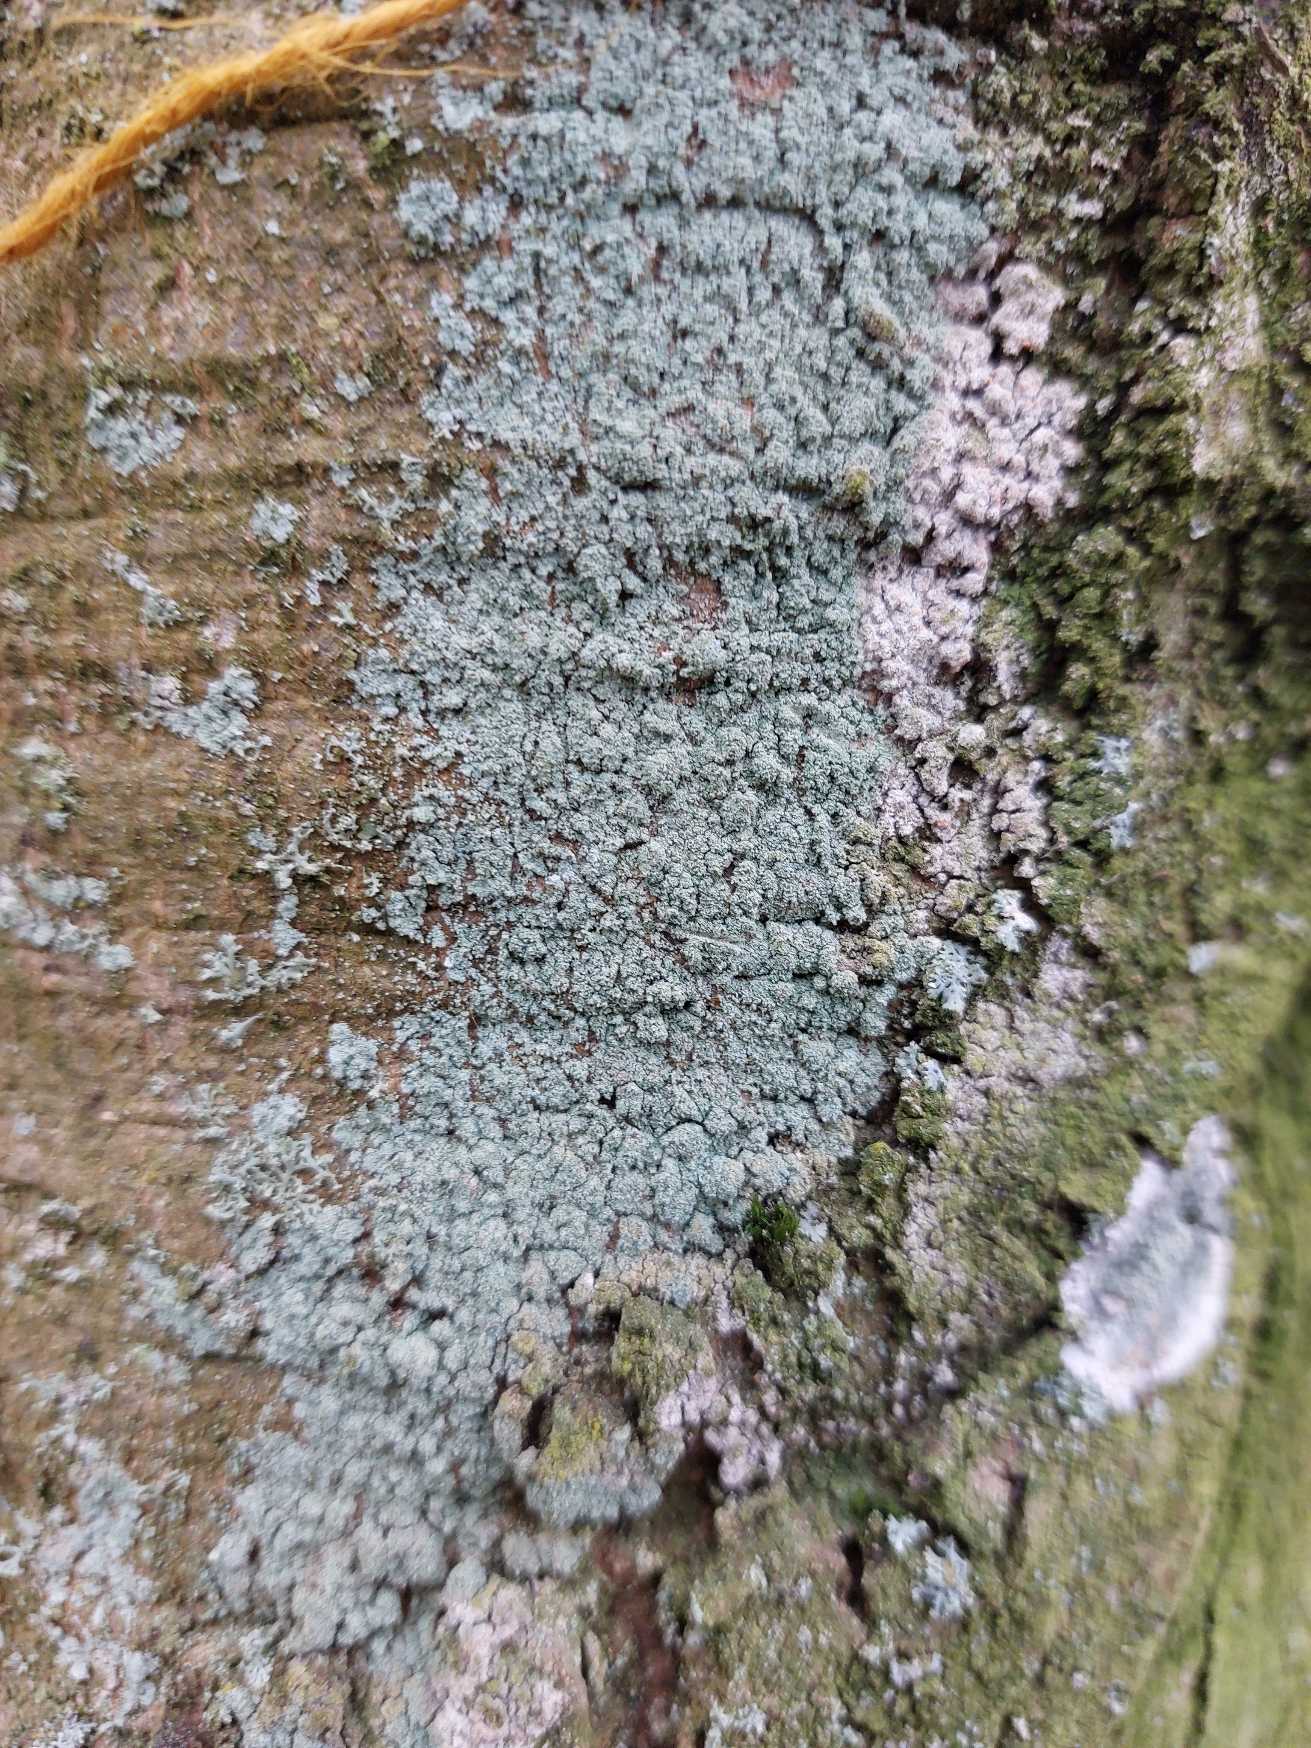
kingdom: Fungi
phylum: Ascomycota
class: Lecanoromycetes
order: Lecanorales
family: Stereocaulaceae
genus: Lepraria
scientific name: Lepraria
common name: Støvlav
